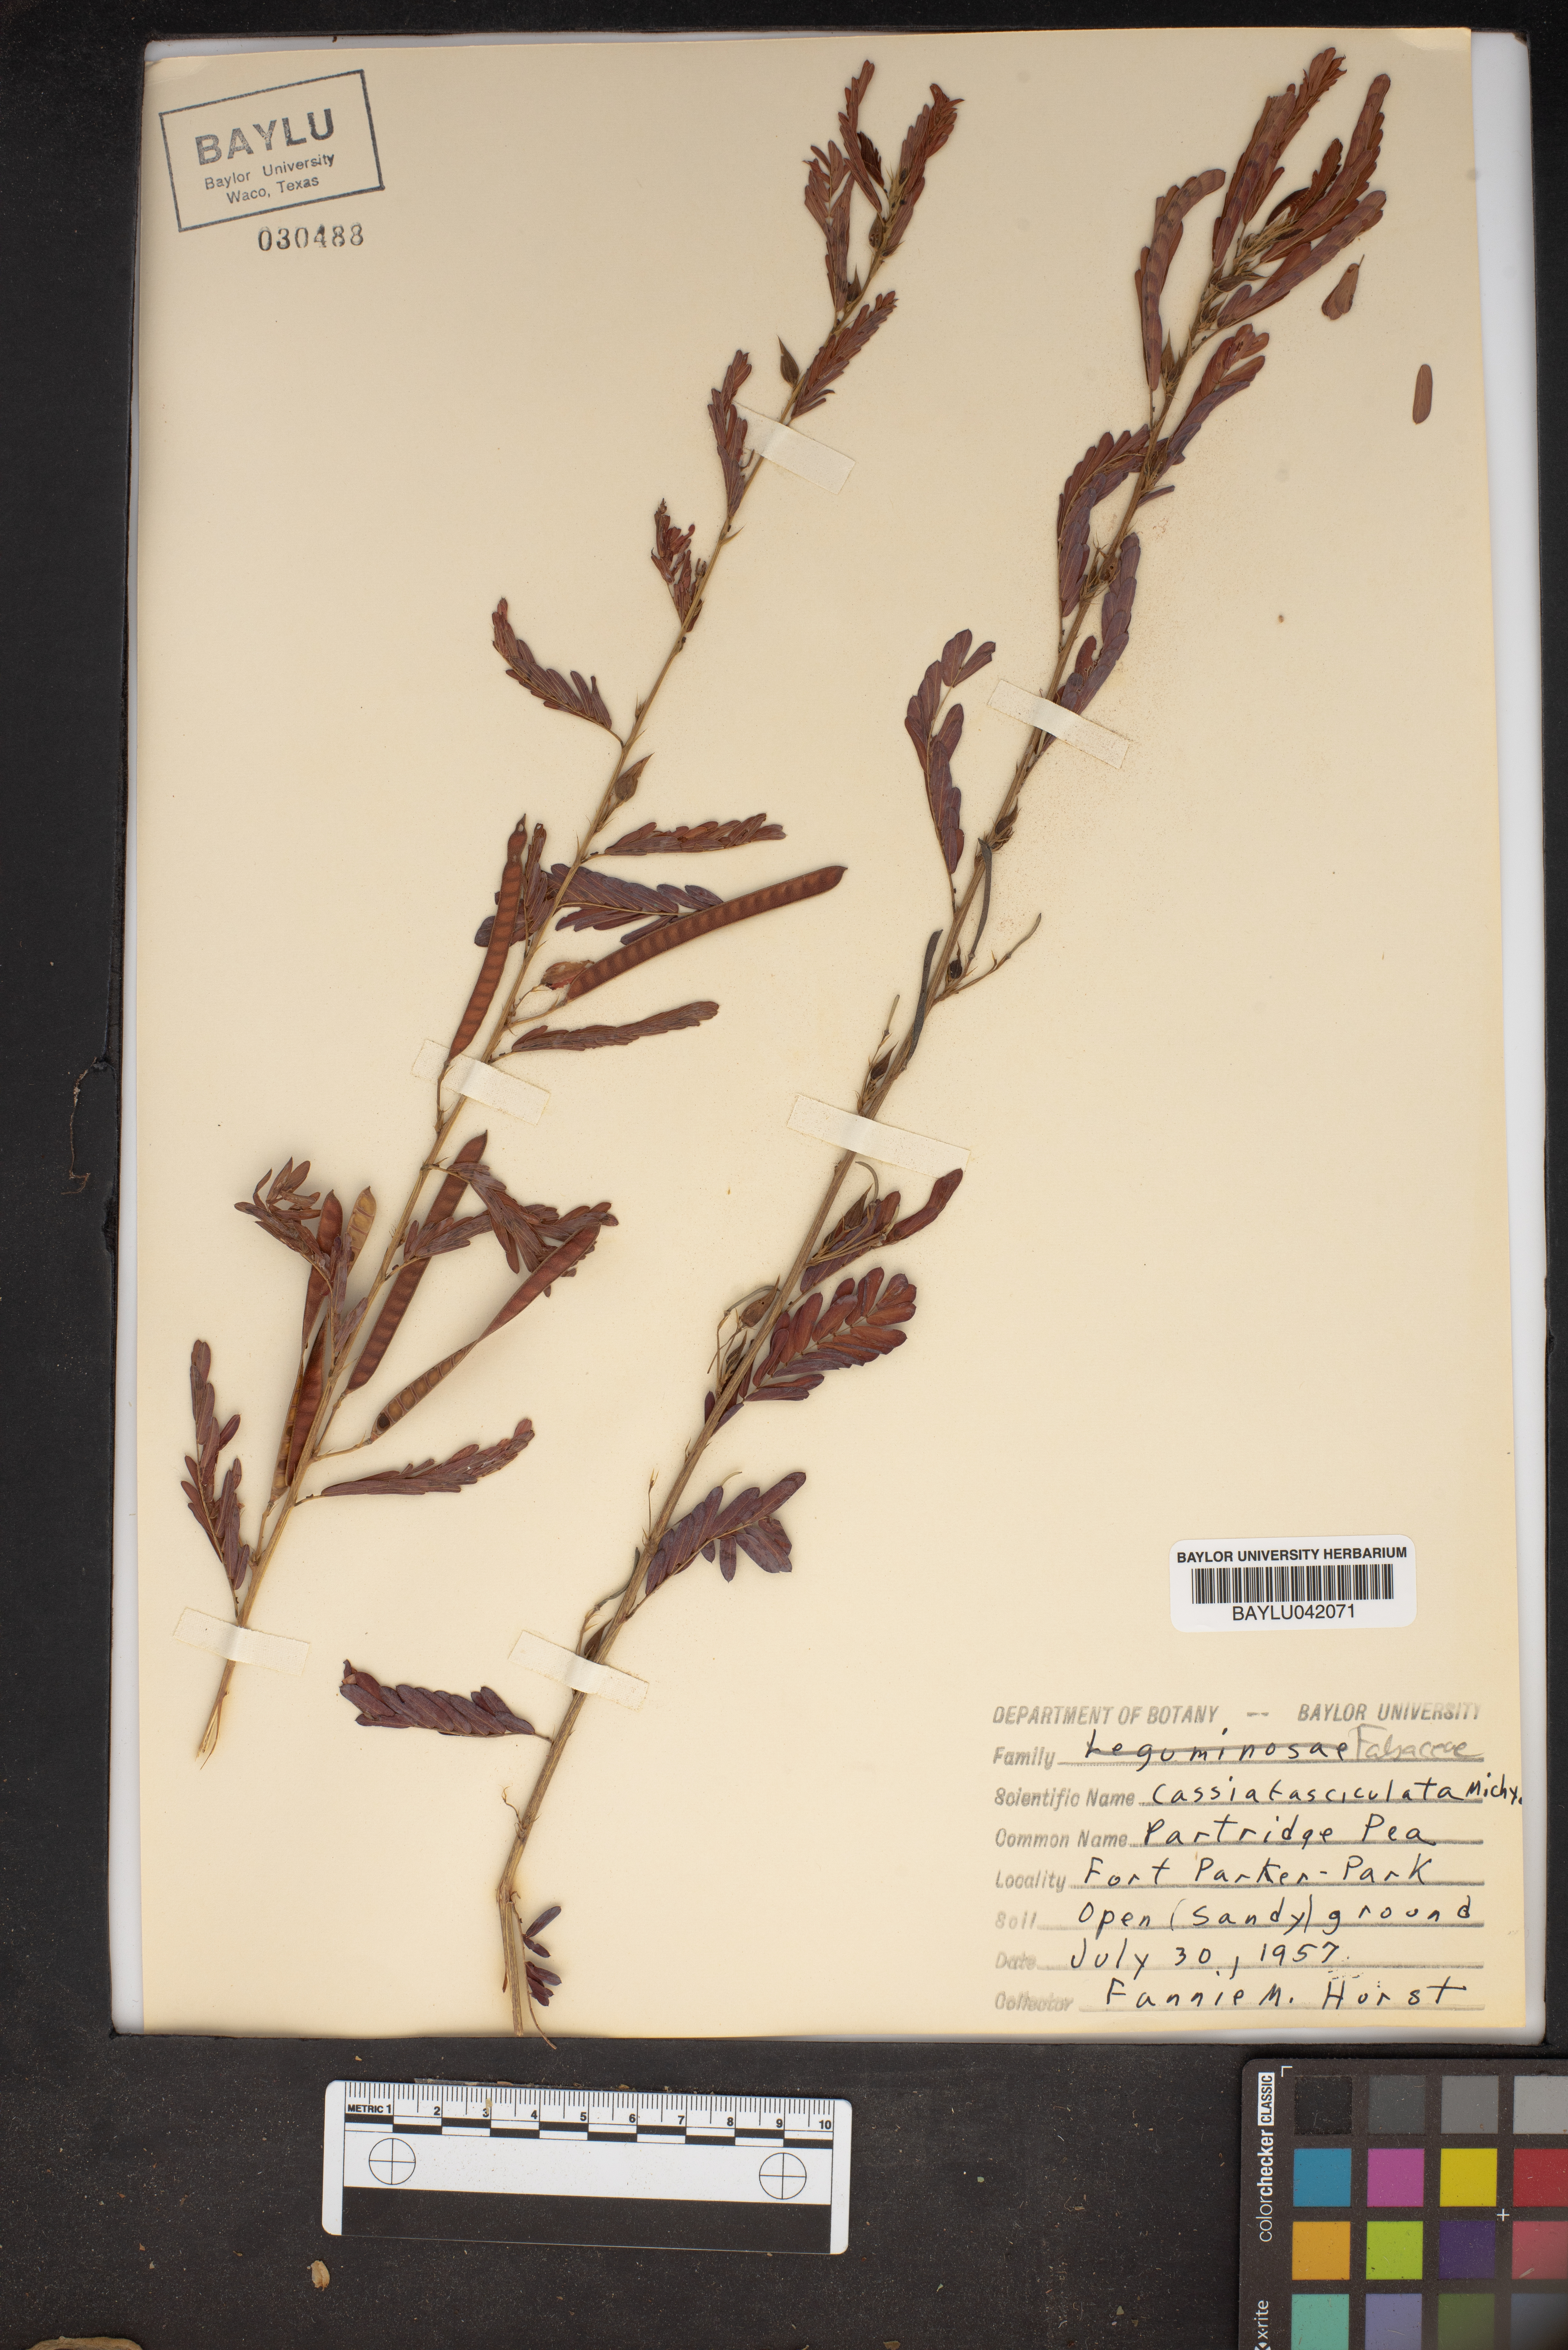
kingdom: Plantae
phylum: Tracheophyta
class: Magnoliopsida
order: Fabales
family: Fabaceae
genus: Chamaecrista
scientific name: Chamaecrista fasciculata
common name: Golden cassia
